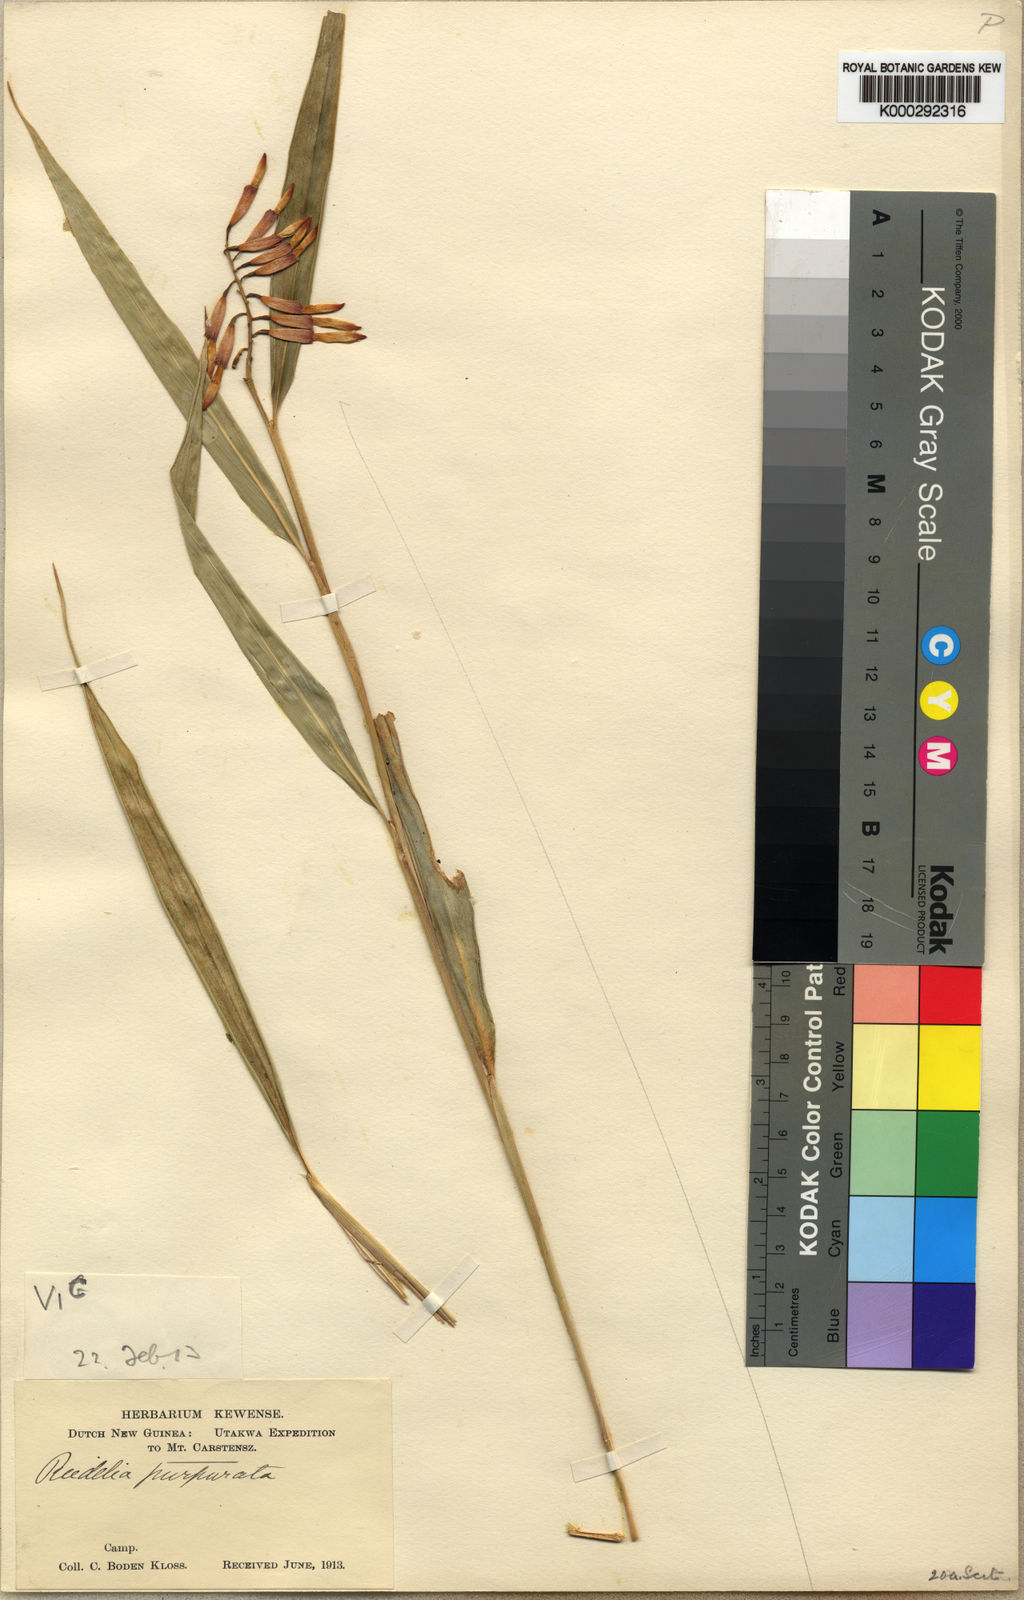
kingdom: Plantae
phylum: Tracheophyta
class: Liliopsida
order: Zingiberales
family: Zingiberaceae
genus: Riedelia
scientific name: Riedelia purpurata
